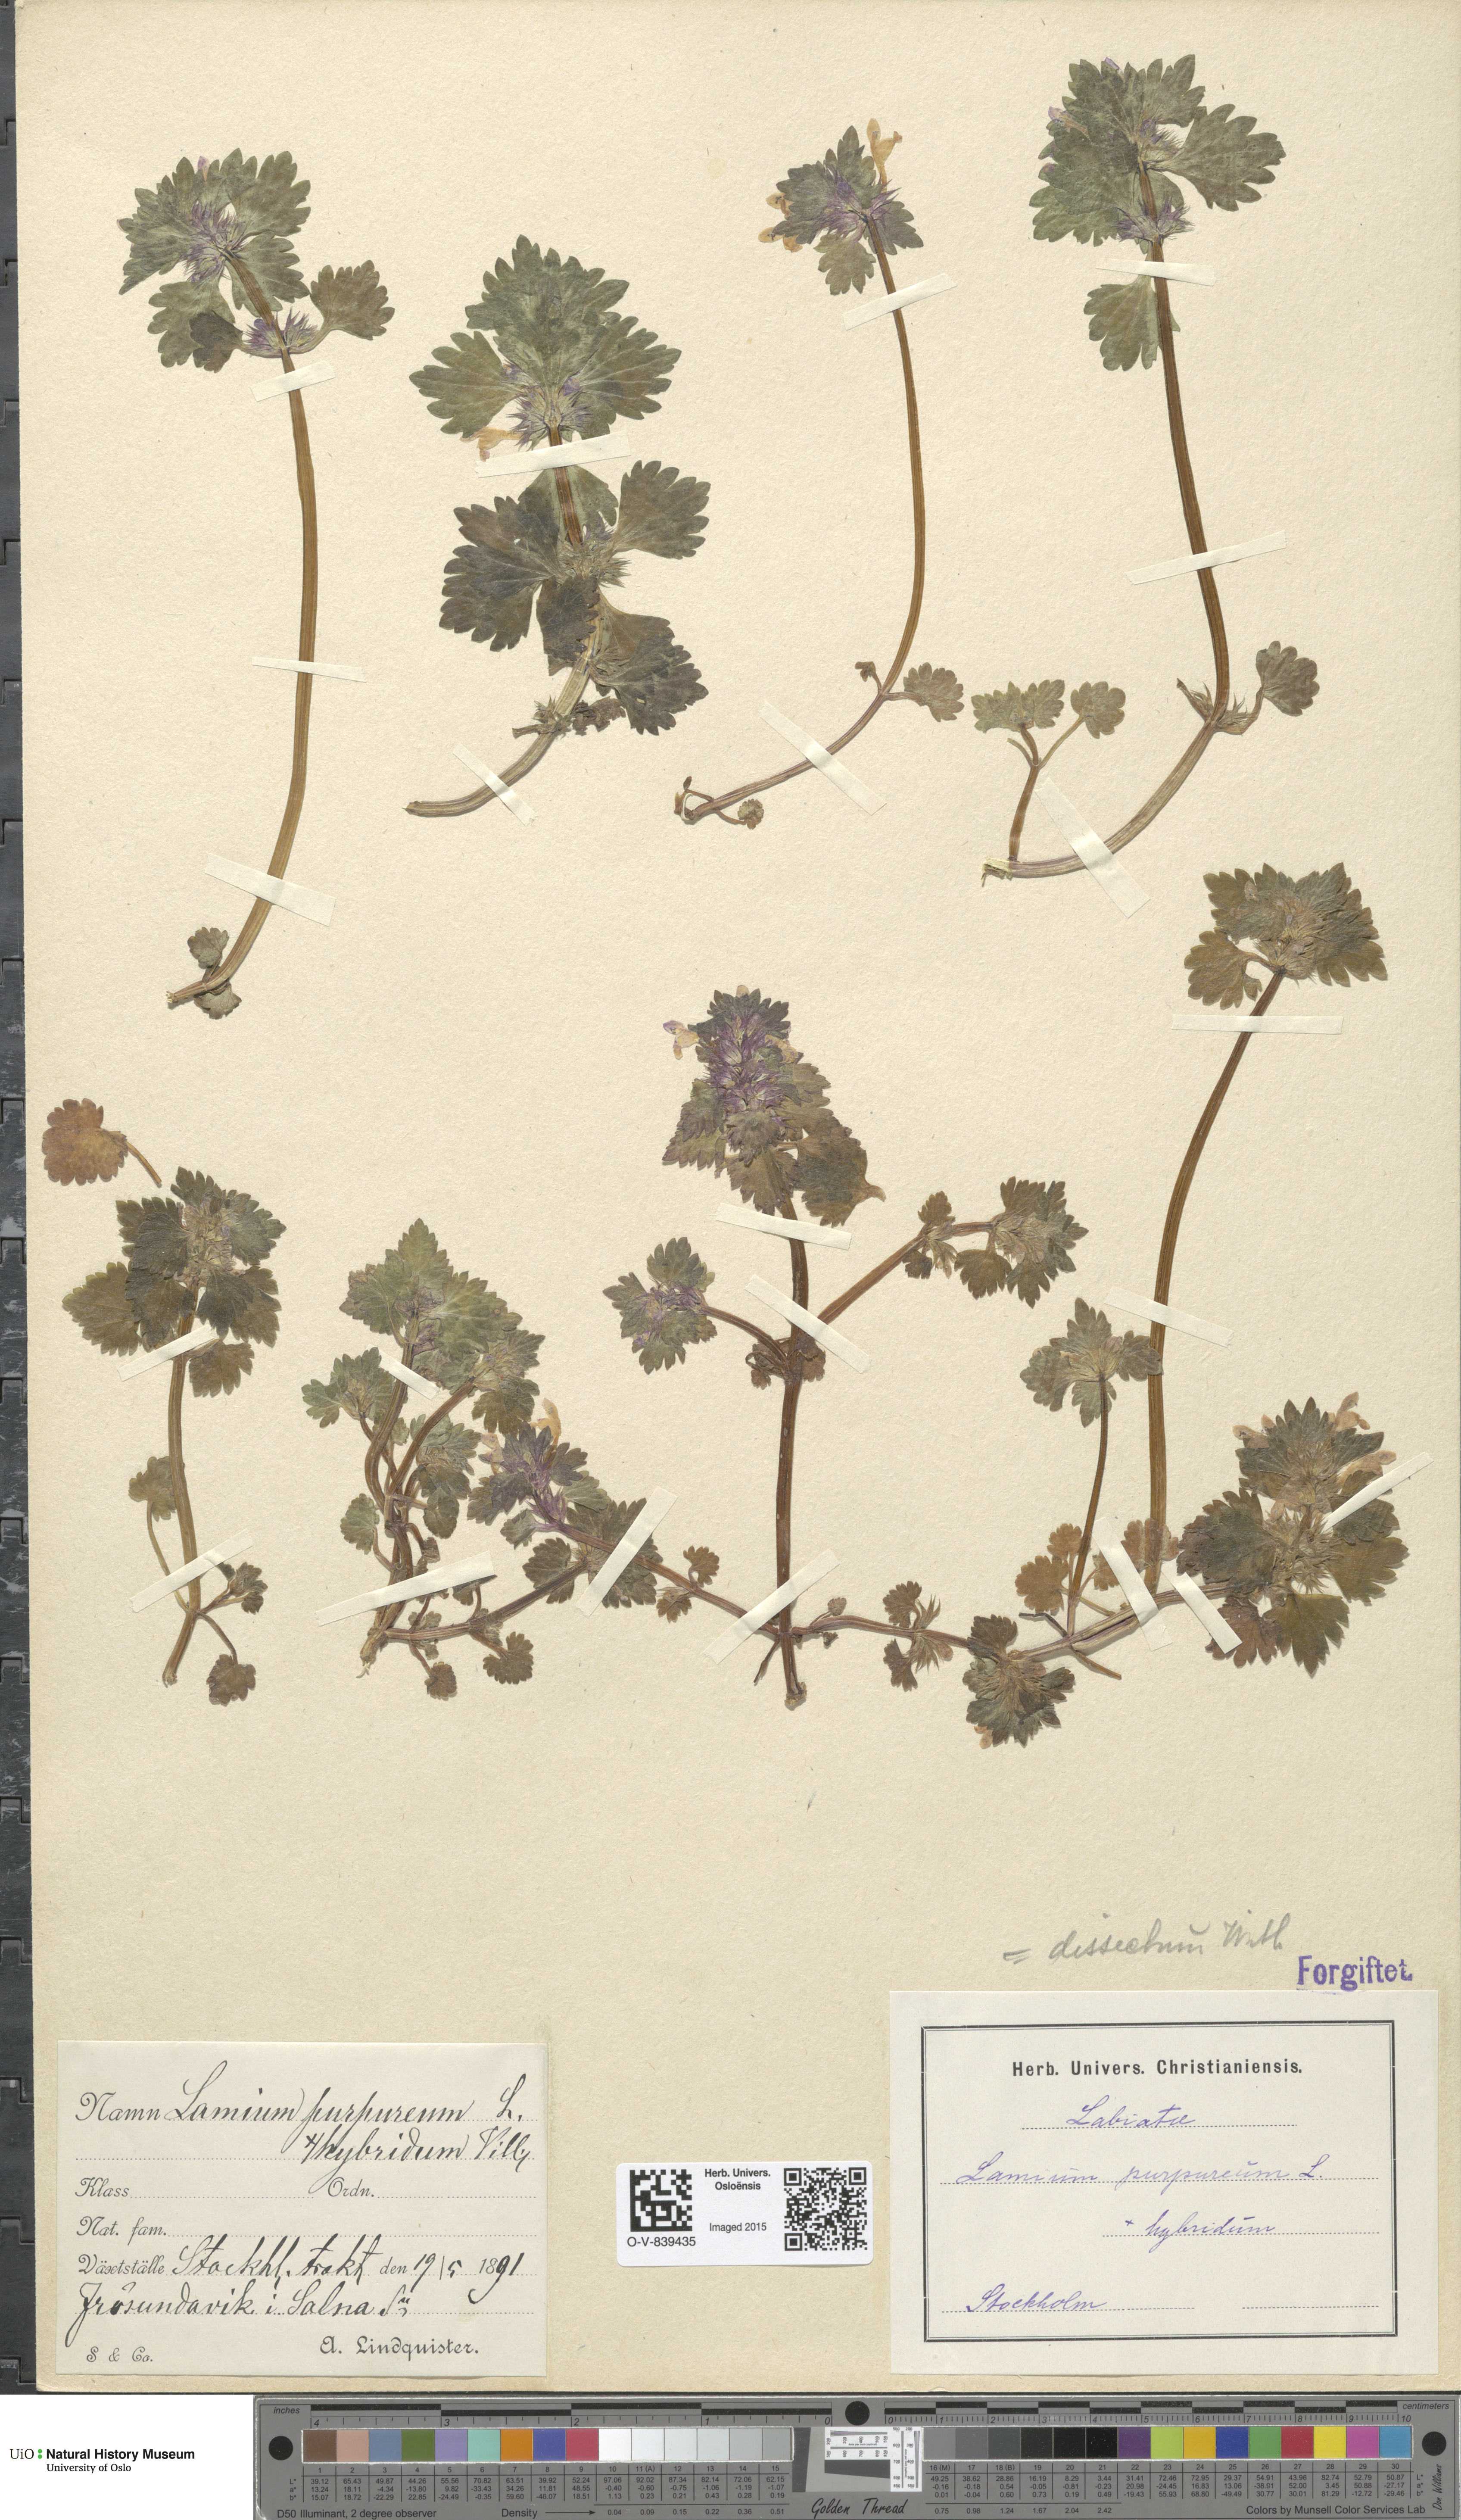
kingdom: Plantae
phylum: Tracheophyta
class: Magnoliopsida
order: Lamiales
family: Lamiaceae
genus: Lamium
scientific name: Lamium hybridum
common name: Cut-leaved dead-nettle
